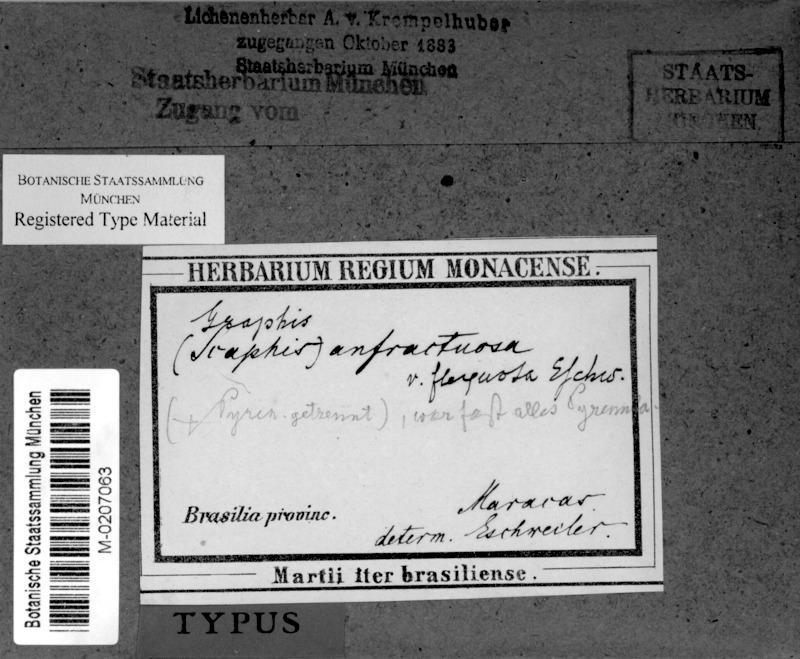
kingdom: Fungi
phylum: Ascomycota
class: Arthoniomycetes
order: Arthoniales
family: Opegraphaceae
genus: Opegrapha
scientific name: Opegrapha agelaea
